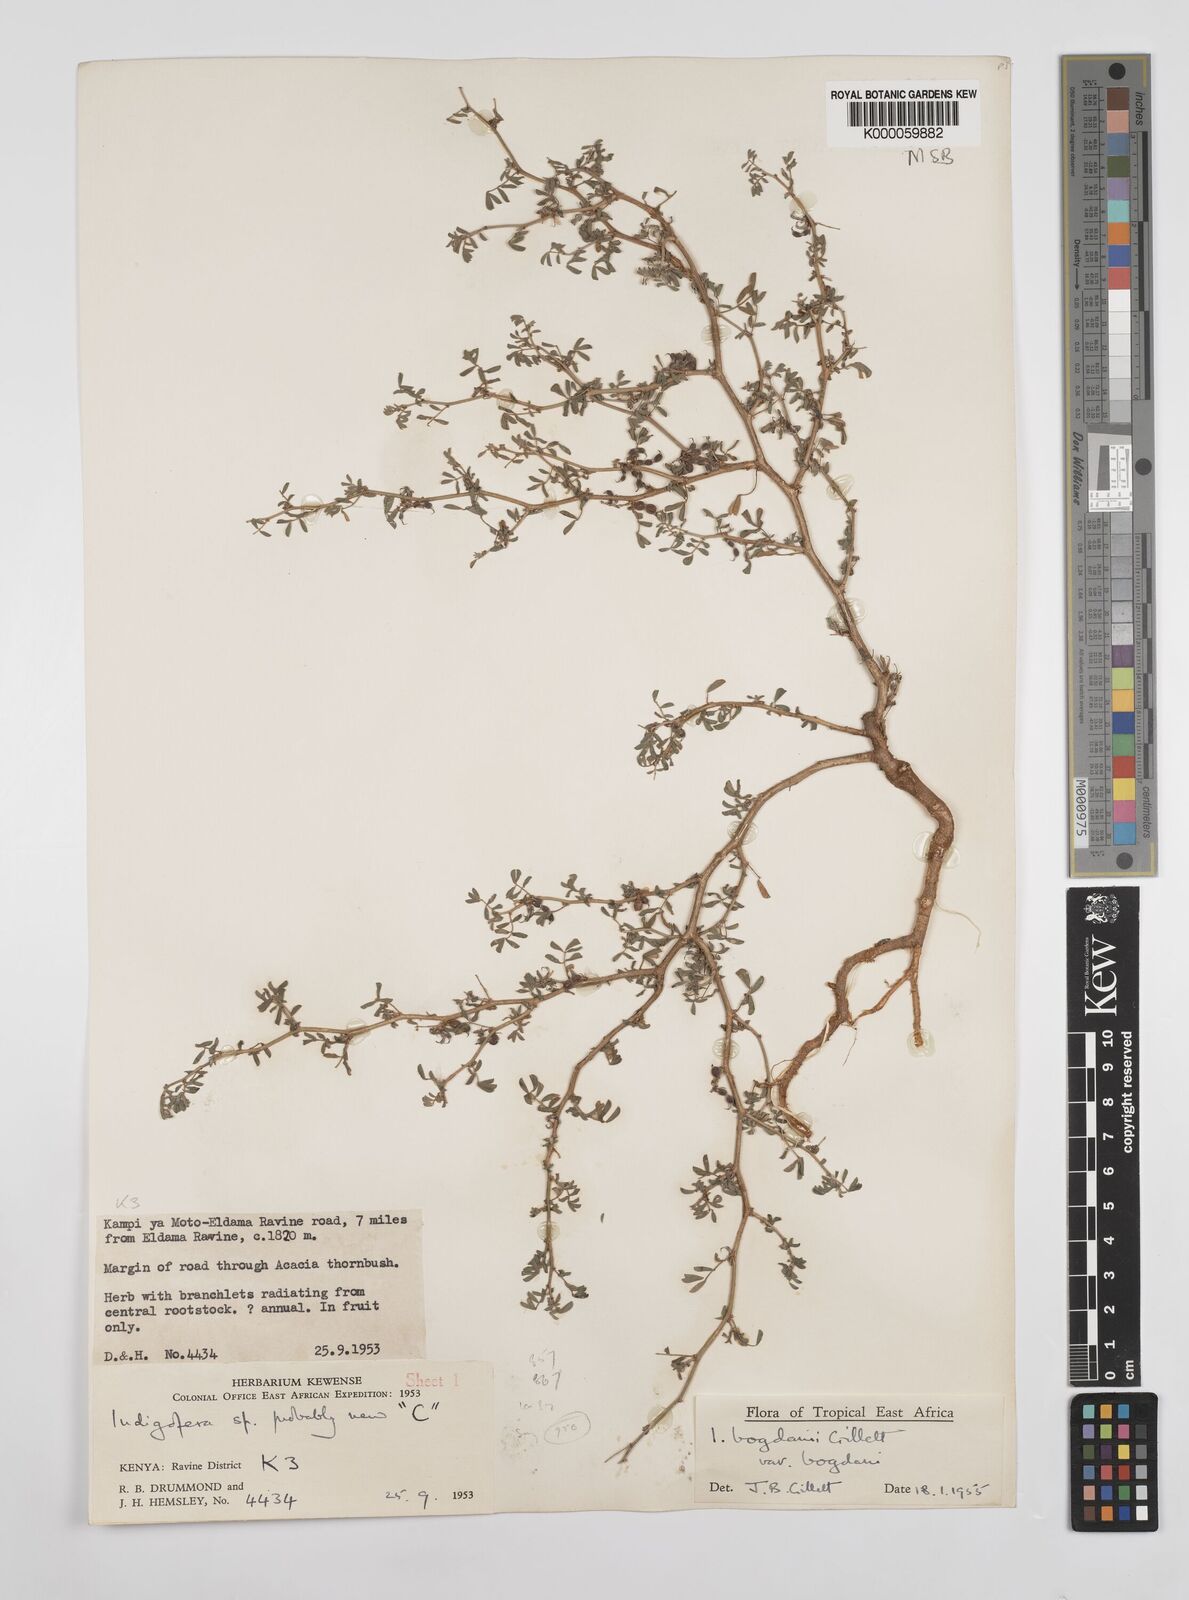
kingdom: Plantae
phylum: Tracheophyta
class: Magnoliopsida
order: Fabales
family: Fabaceae
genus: Indigofera
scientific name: Indigofera bogdanii
